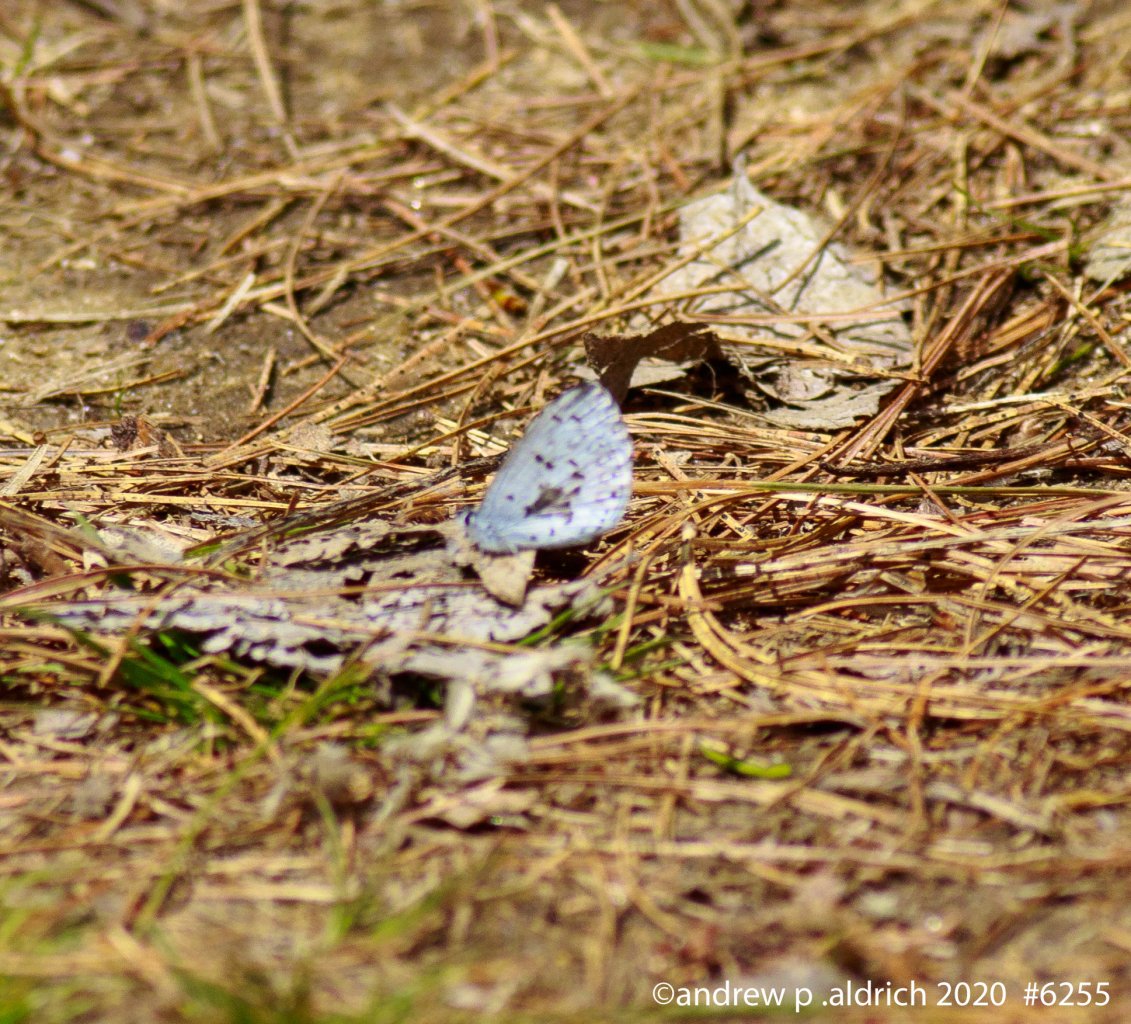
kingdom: Animalia
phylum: Arthropoda
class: Insecta
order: Lepidoptera
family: Lycaenidae
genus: Celastrina
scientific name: Celastrina
